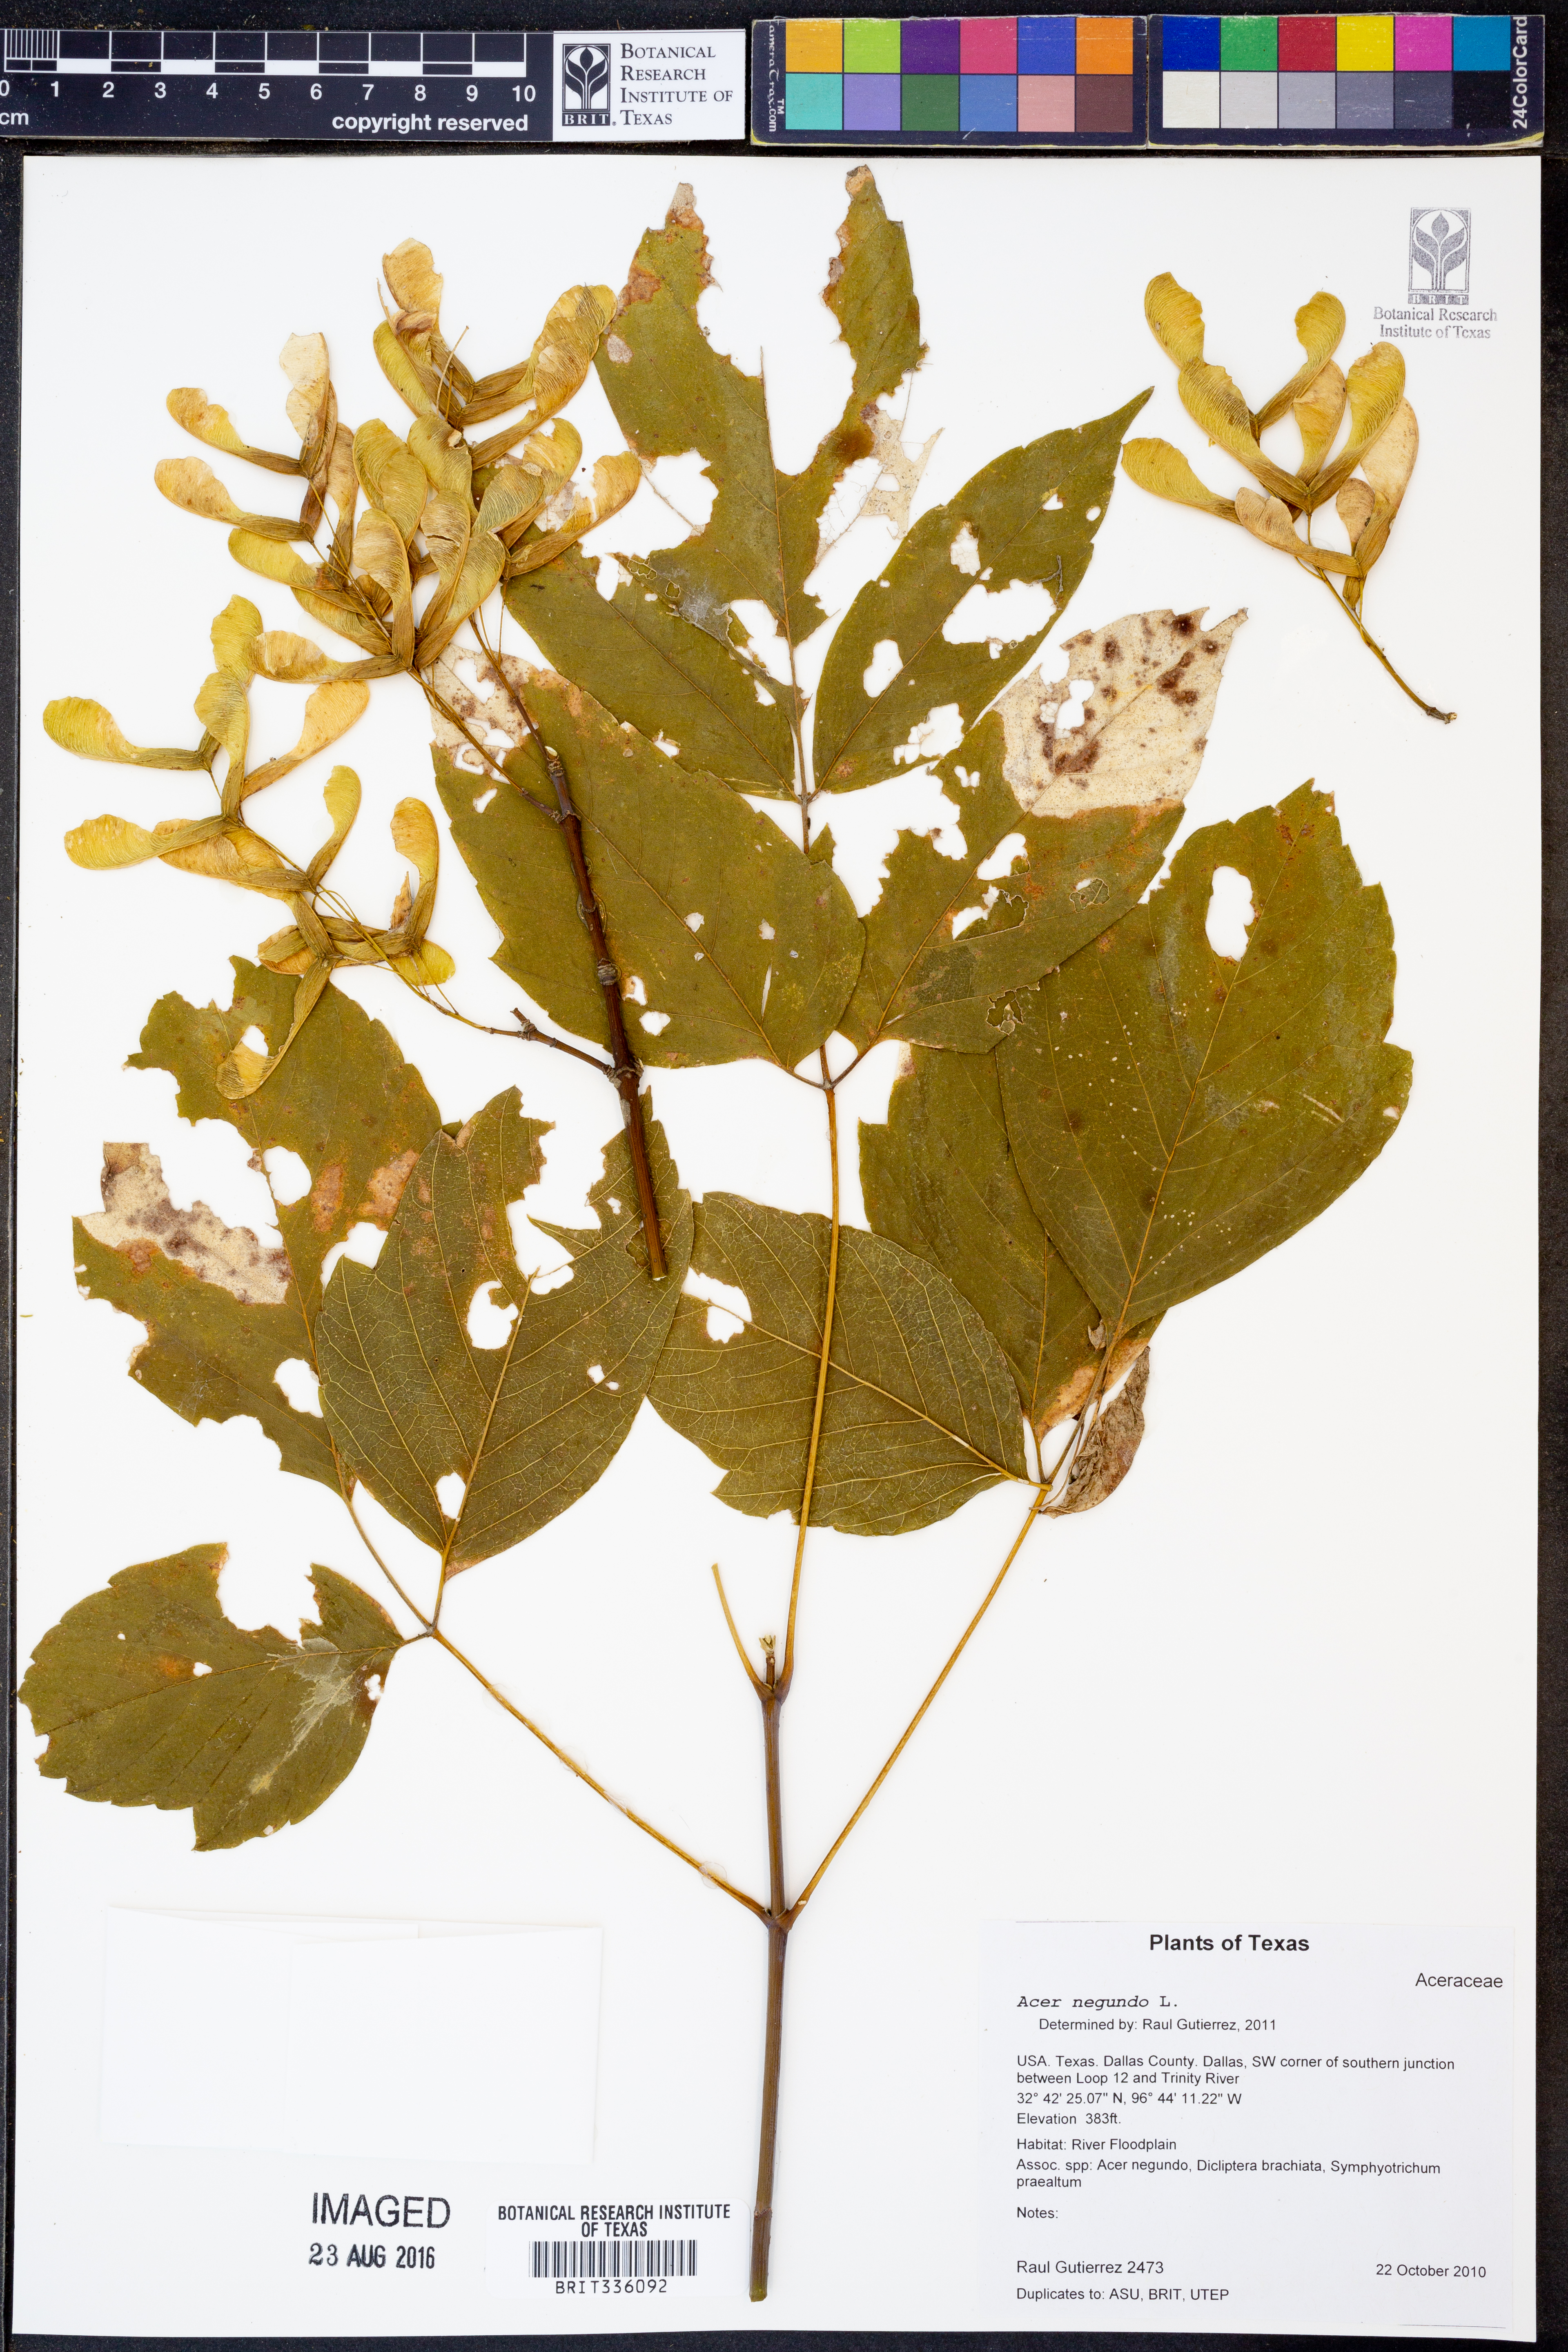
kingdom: Plantae
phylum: Tracheophyta
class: Magnoliopsida
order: Sapindales
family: Sapindaceae
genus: Acer
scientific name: Acer negundo
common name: Ashleaf maple
